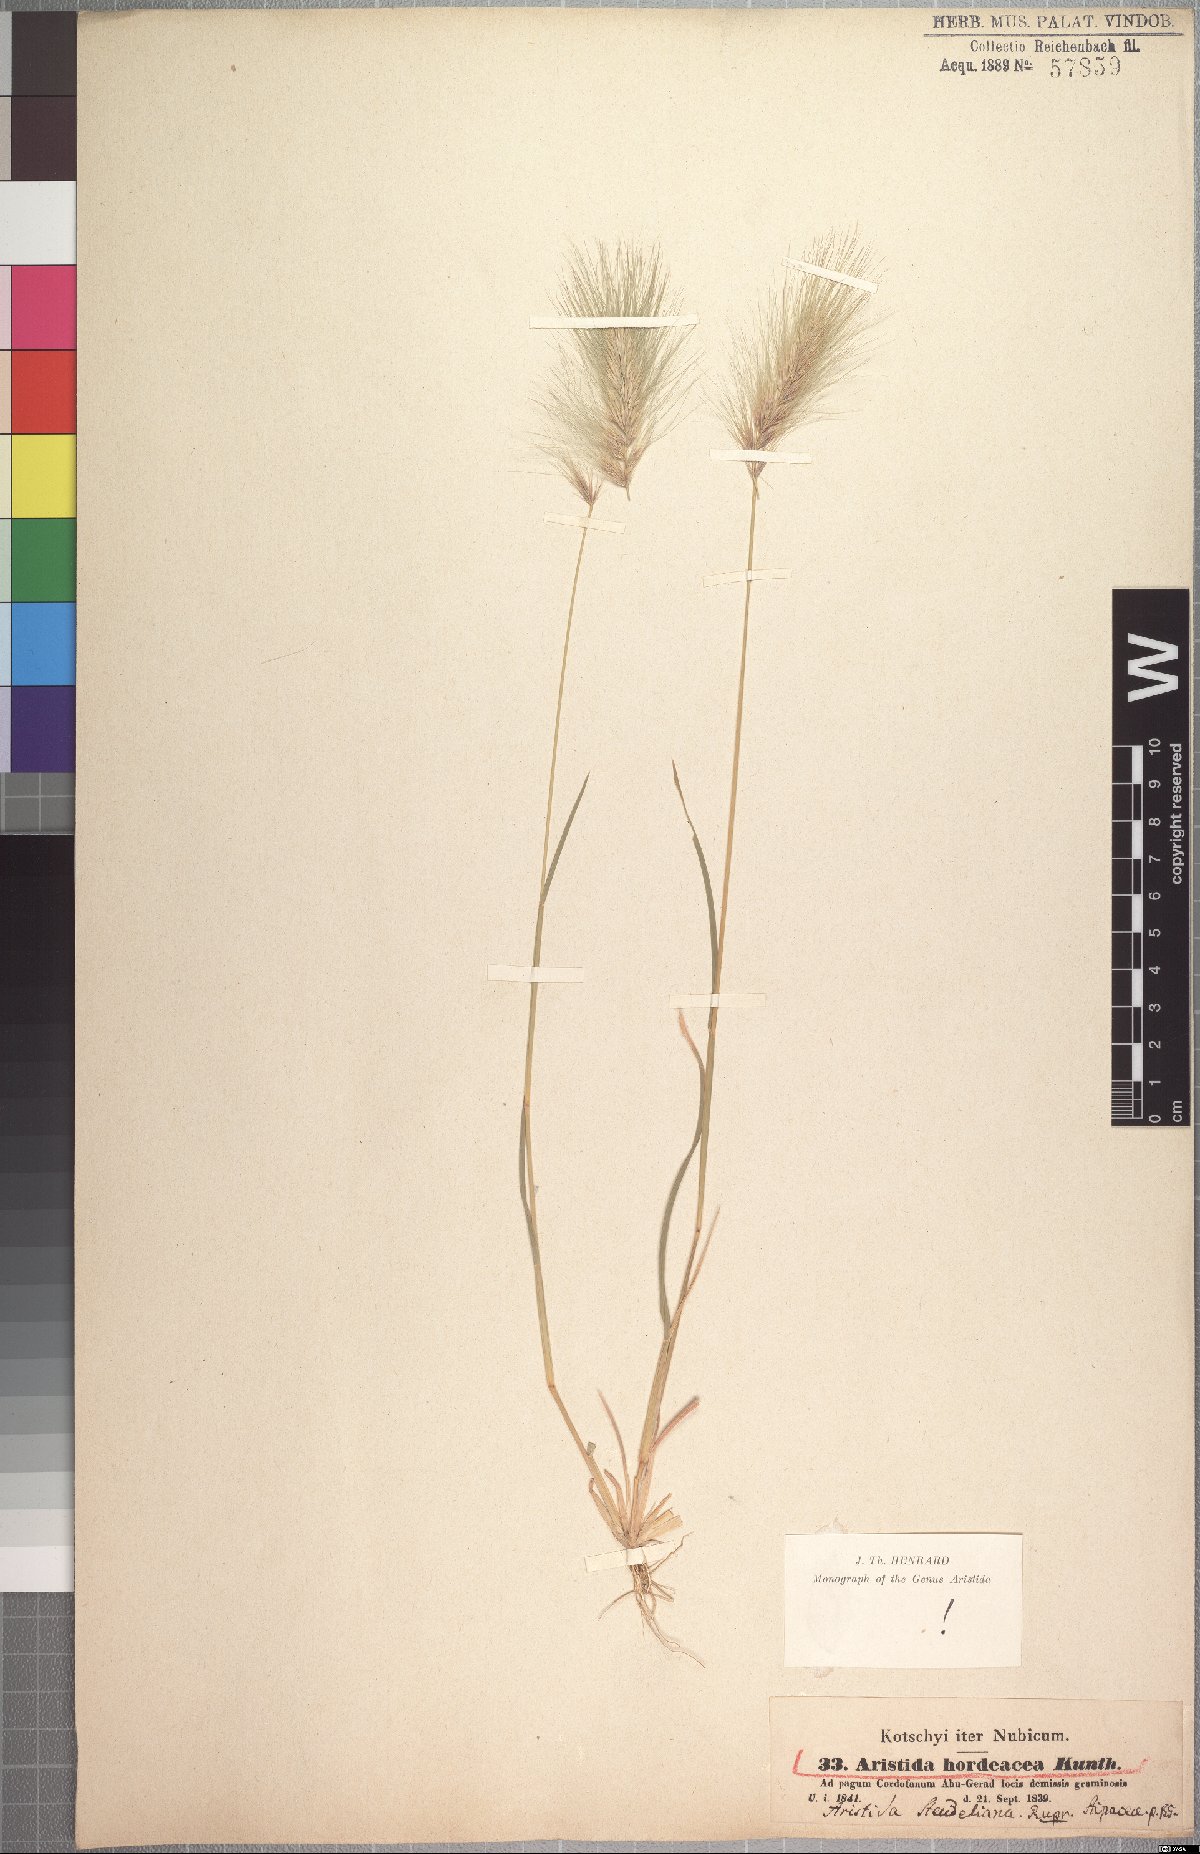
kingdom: Plantae
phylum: Tracheophyta
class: Liliopsida
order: Poales
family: Poaceae
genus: Aristida
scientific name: Aristida hordeacea
